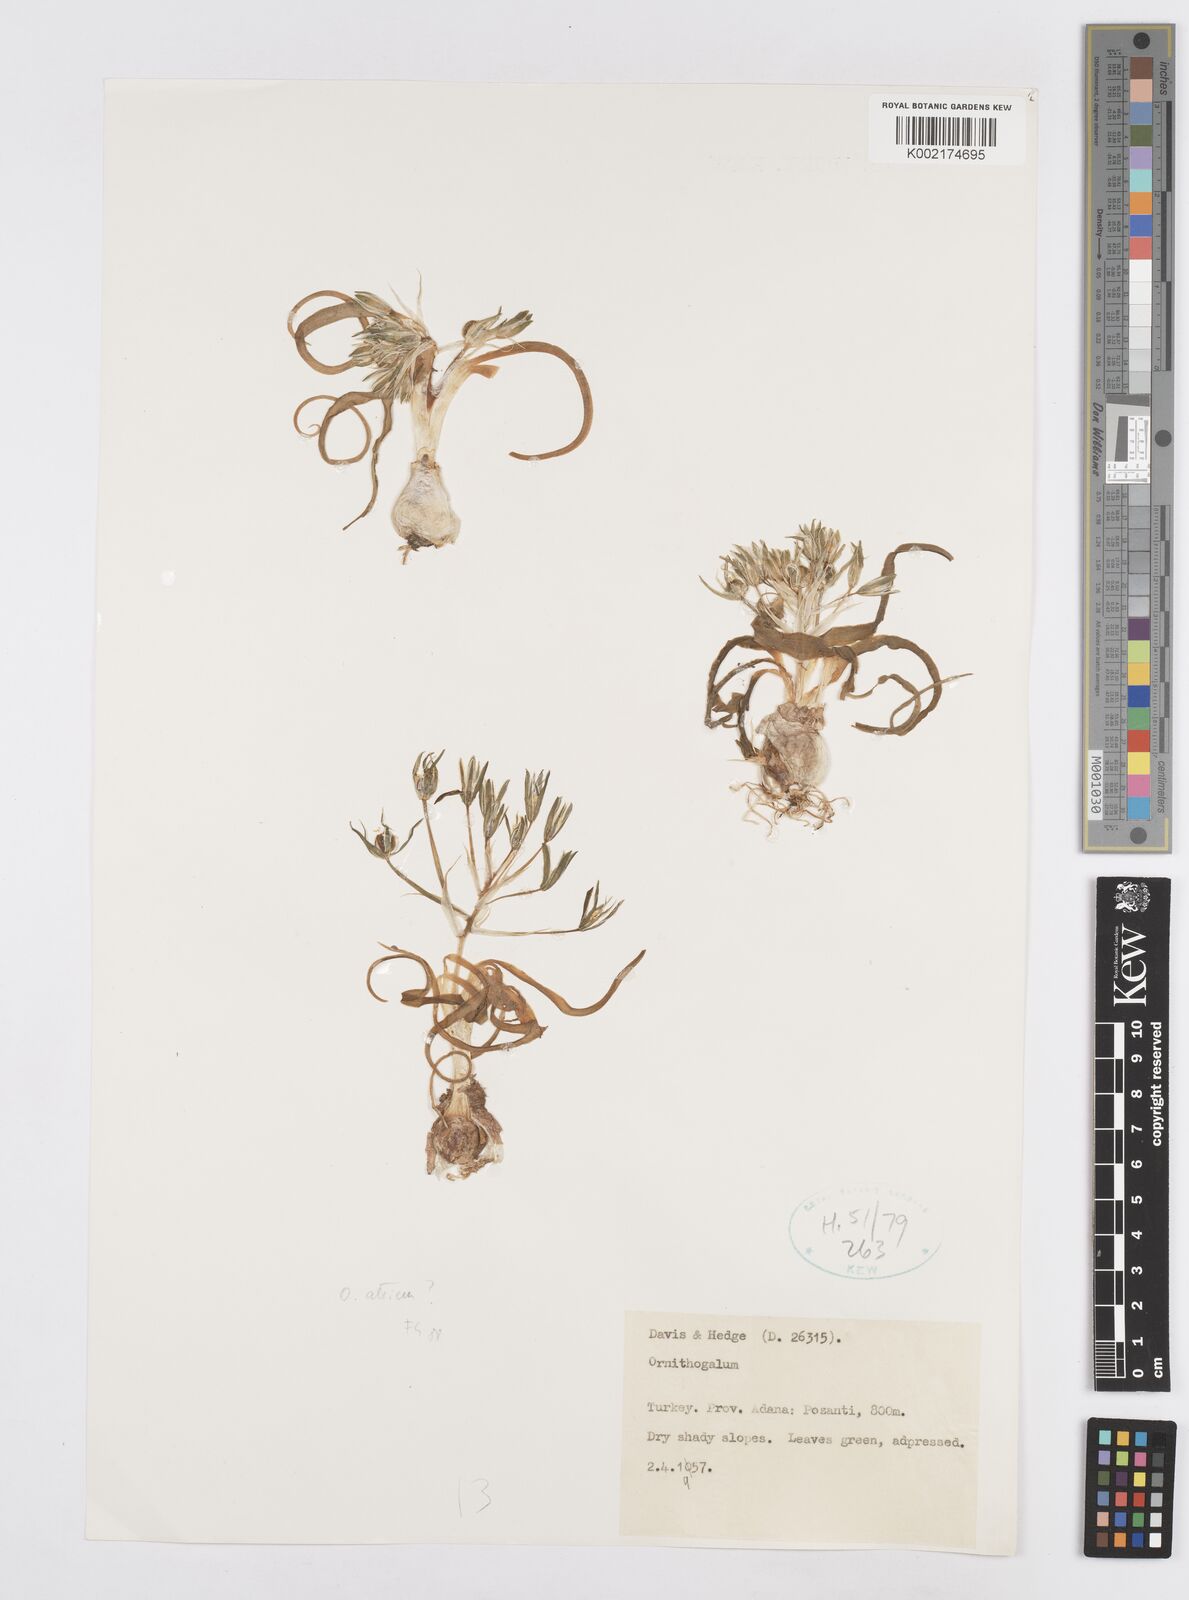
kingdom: Plantae
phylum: Tracheophyta
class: Liliopsida
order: Asparagales
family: Asparagaceae
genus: Ornithogalum
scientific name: Ornithogalum atticum
